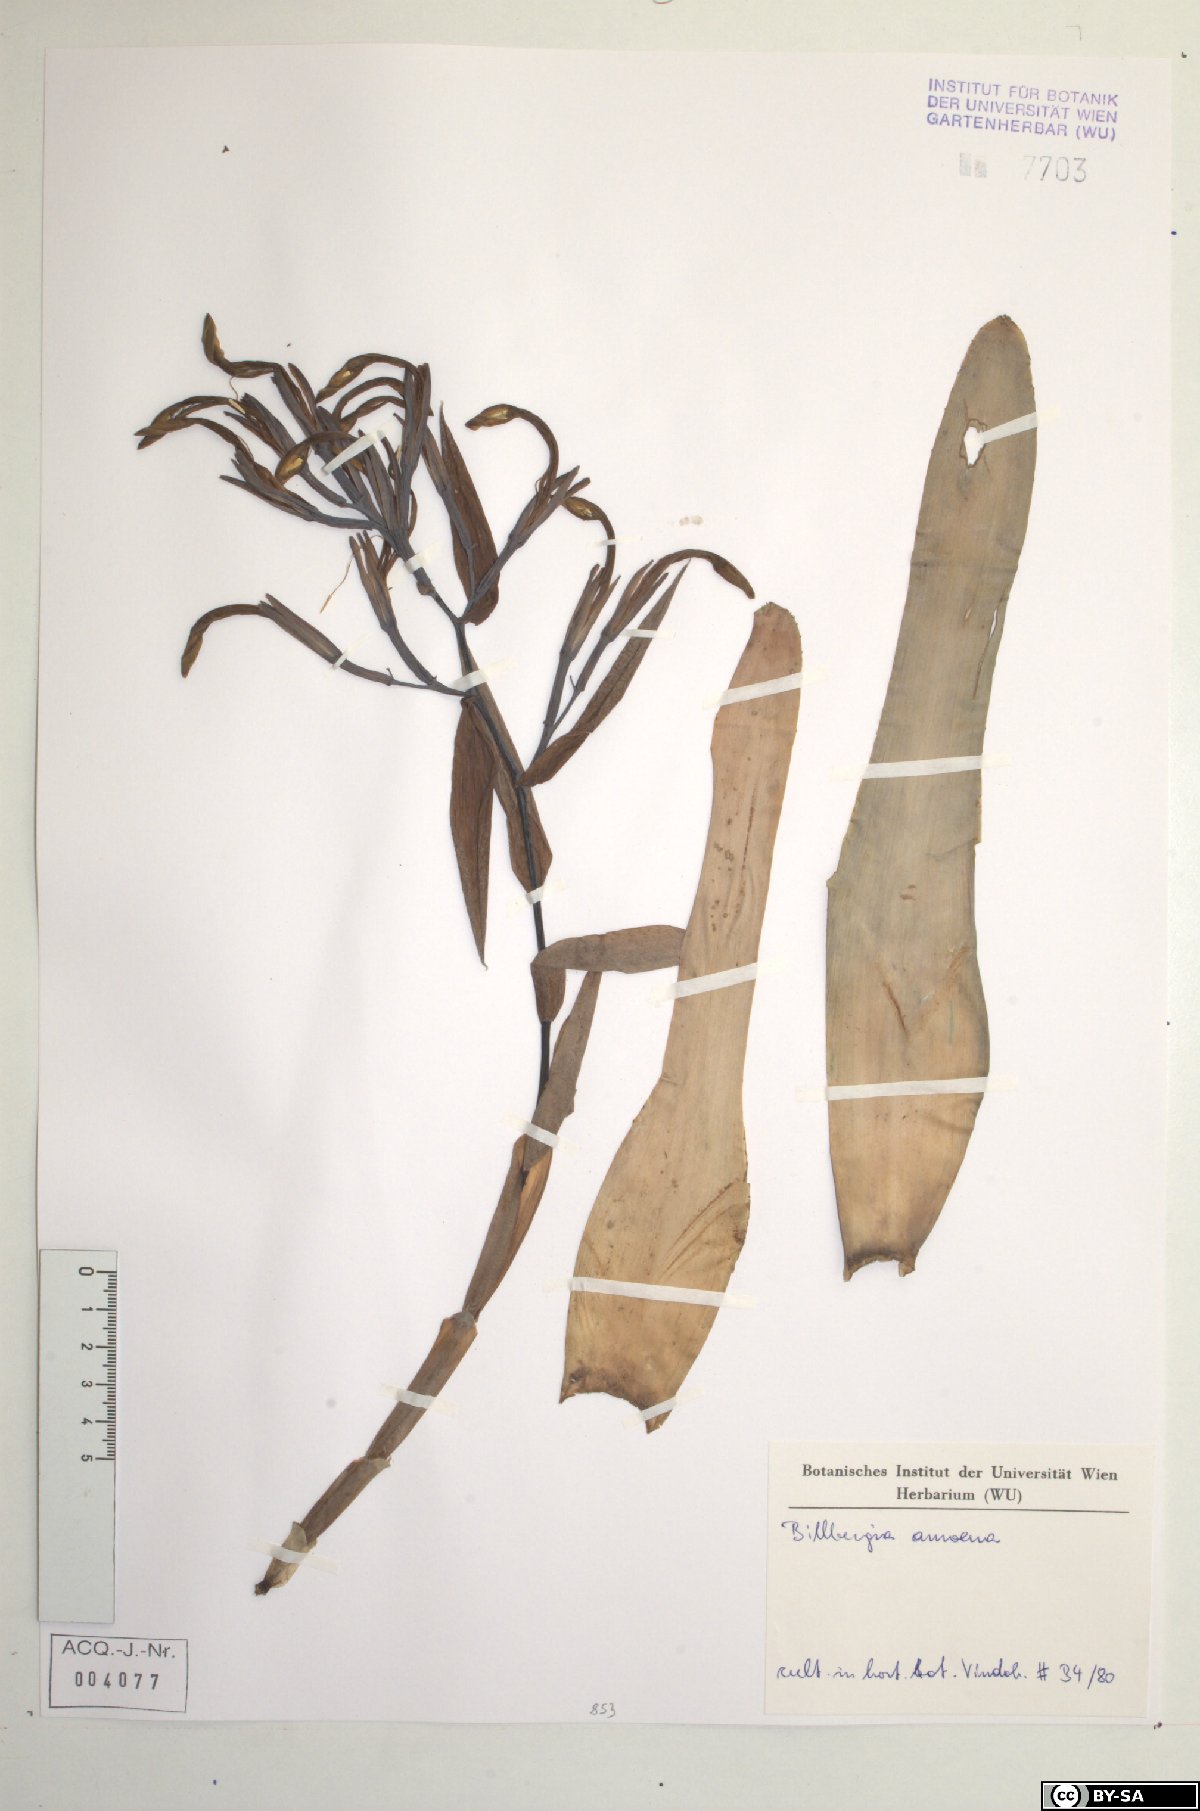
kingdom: Plantae
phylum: Tracheophyta
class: Liliopsida
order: Poales
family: Bromeliaceae
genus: Billbergia
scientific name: Billbergia
